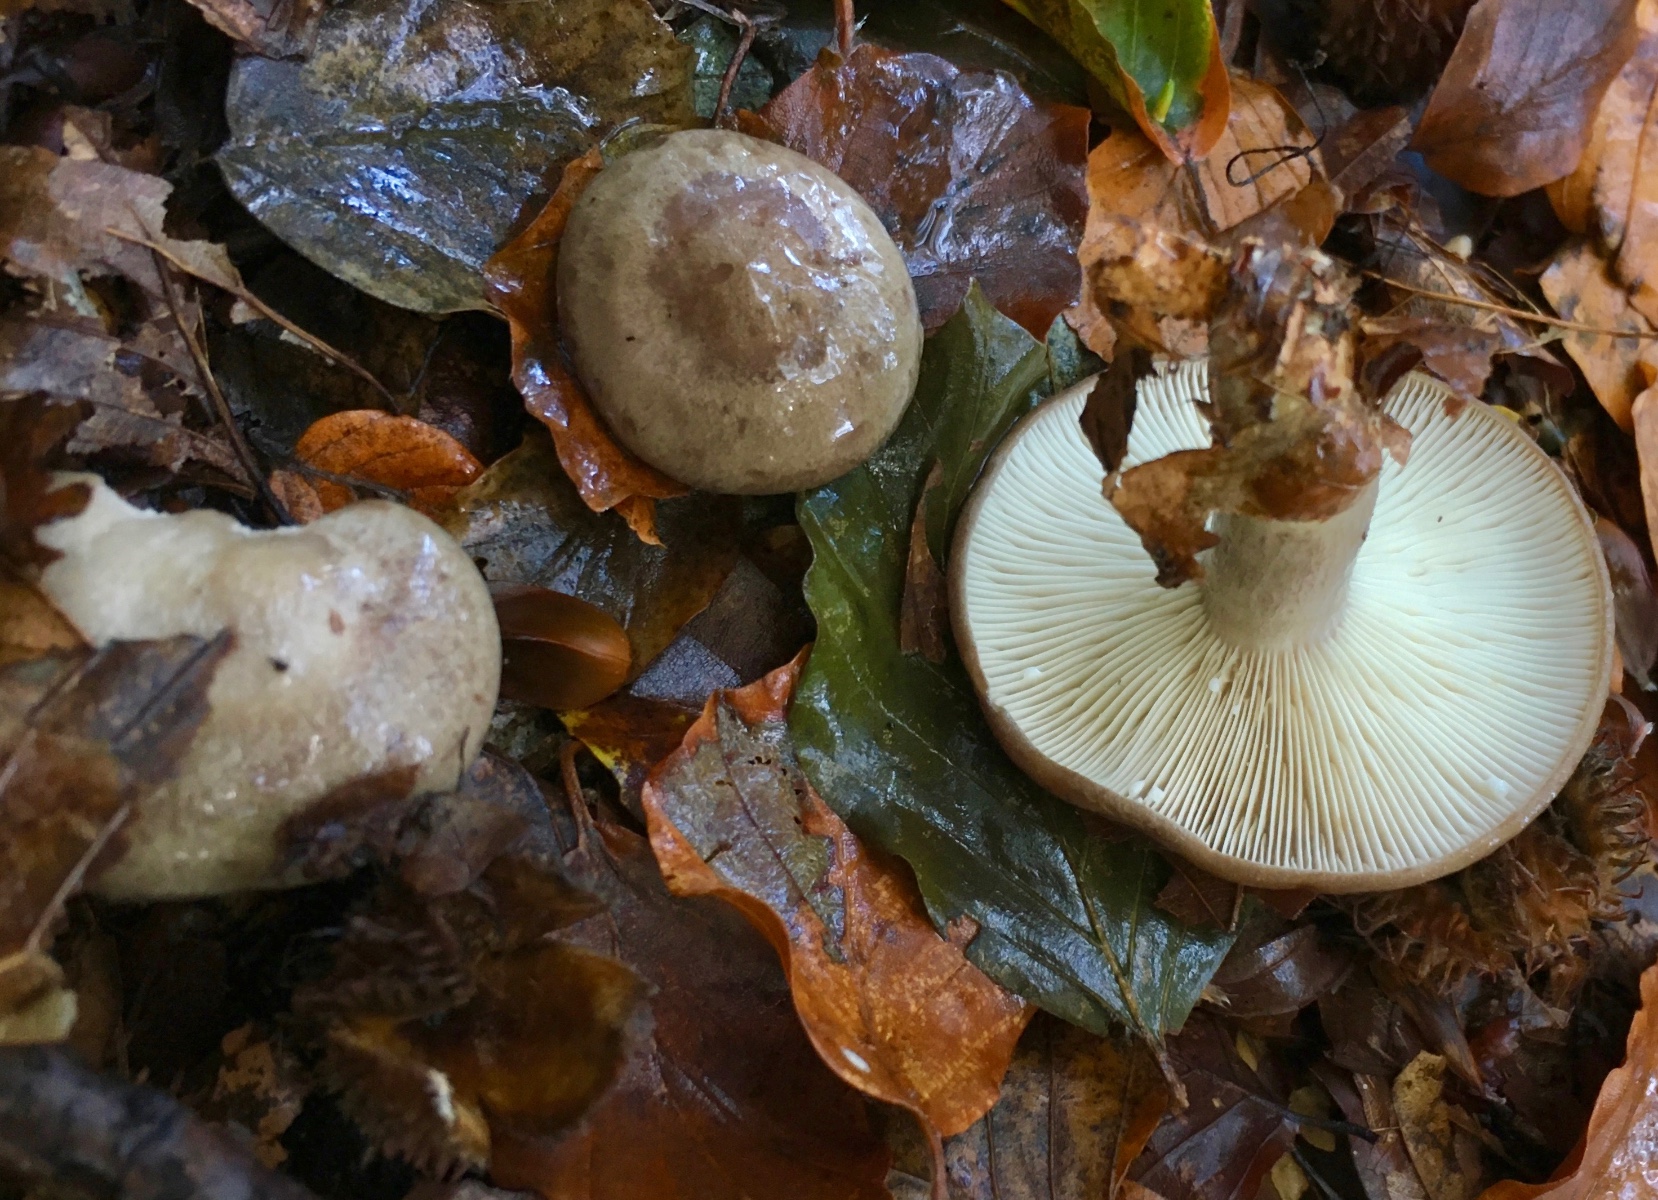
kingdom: Fungi
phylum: Basidiomycota
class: Agaricomycetes
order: Russulales
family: Russulaceae
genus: Lactarius
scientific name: Lactarius blennius
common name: dråbeplettet mælkehat
